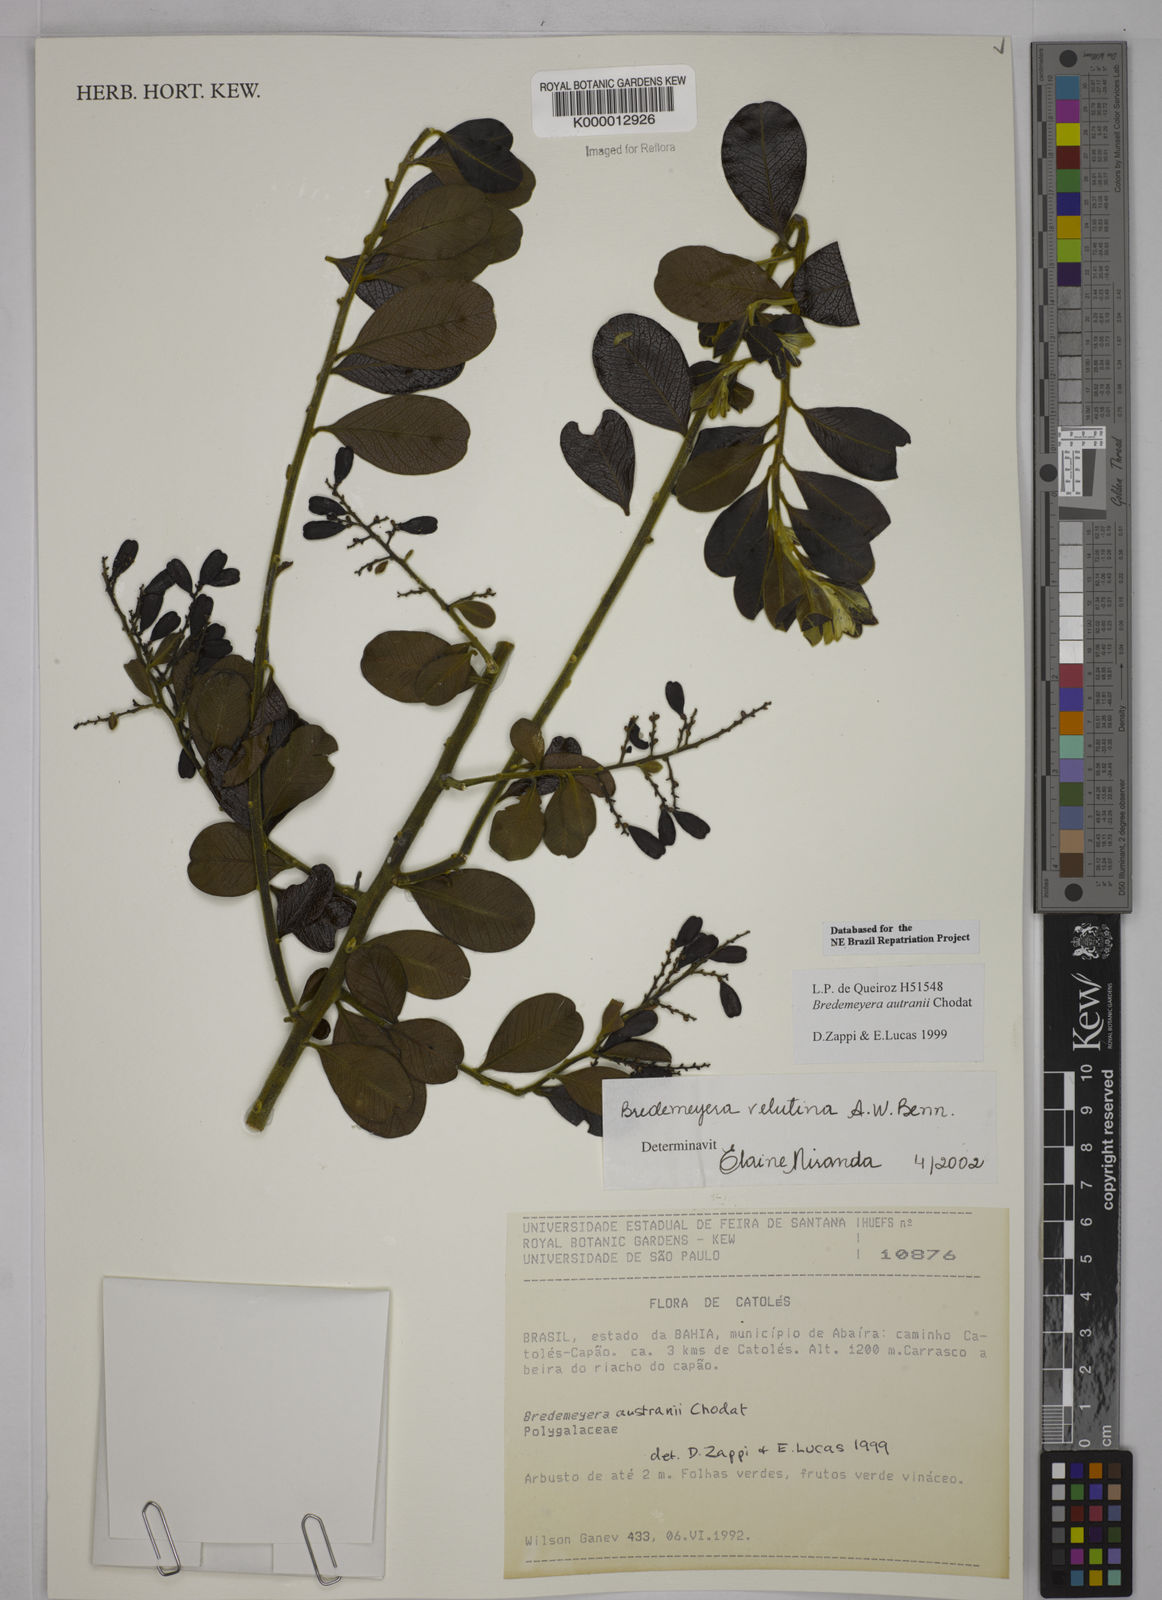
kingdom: Plantae
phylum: Tracheophyta
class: Magnoliopsida
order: Fabales
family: Polygalaceae
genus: Bredemeyera
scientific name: Bredemeyera hebeclada
